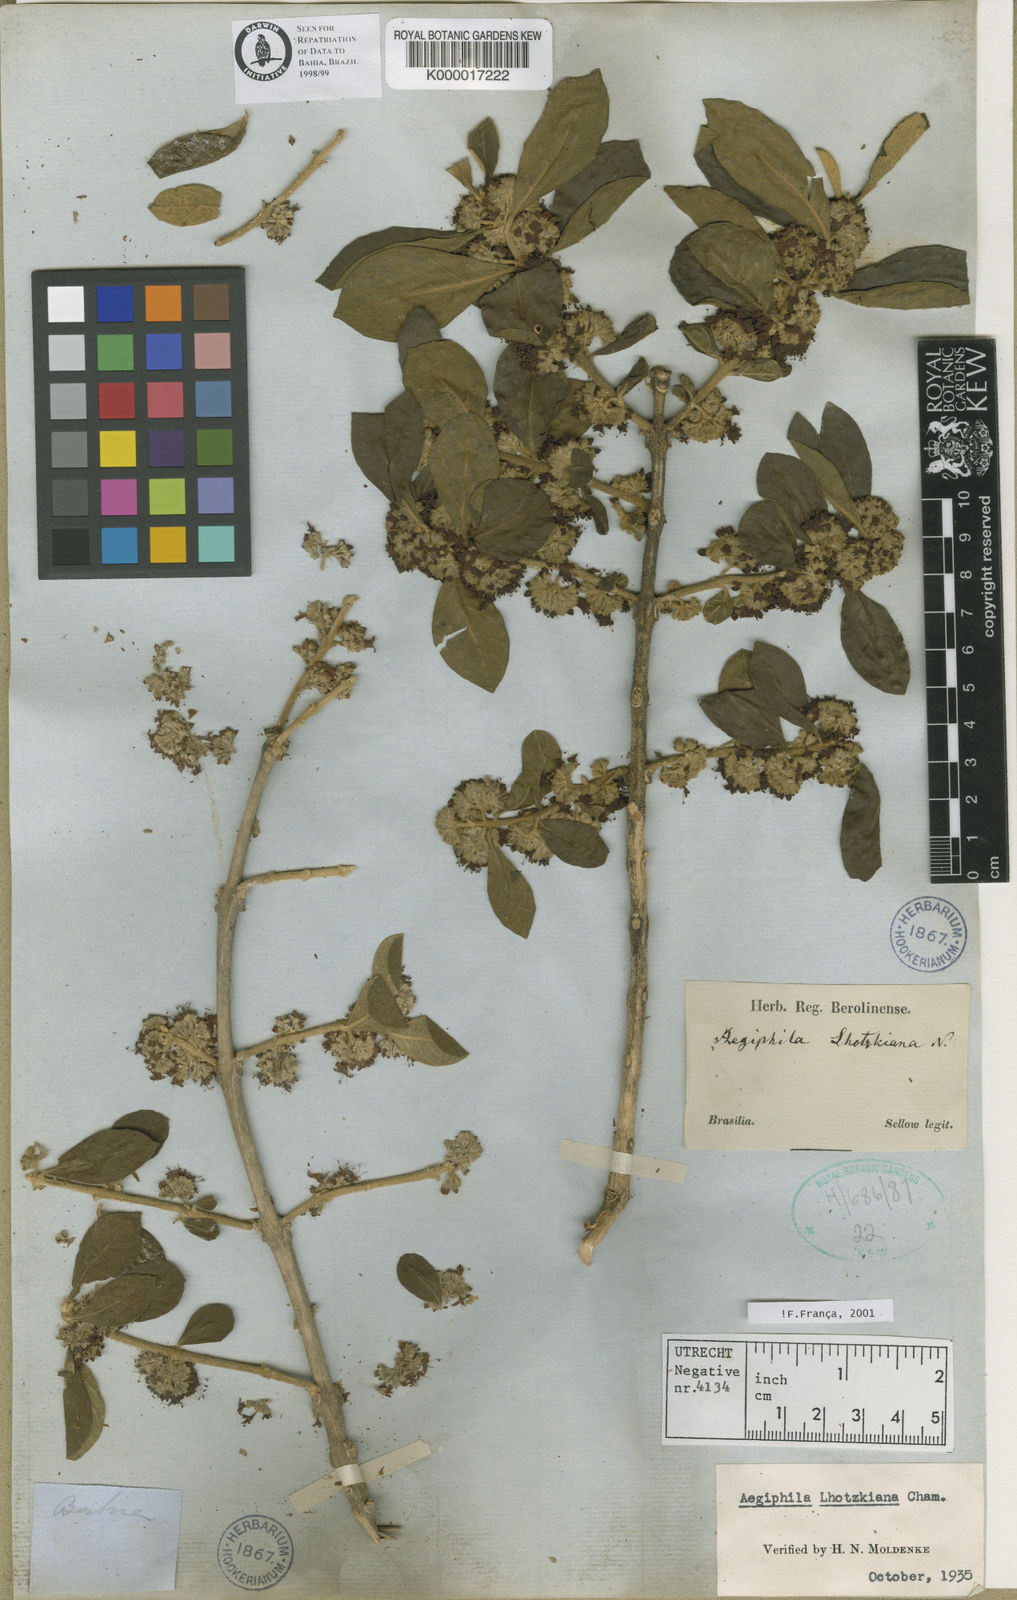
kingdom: Plantae
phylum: Tracheophyta
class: Magnoliopsida
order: Lamiales
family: Lamiaceae
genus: Aegiphila
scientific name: Aegiphila verticillata
